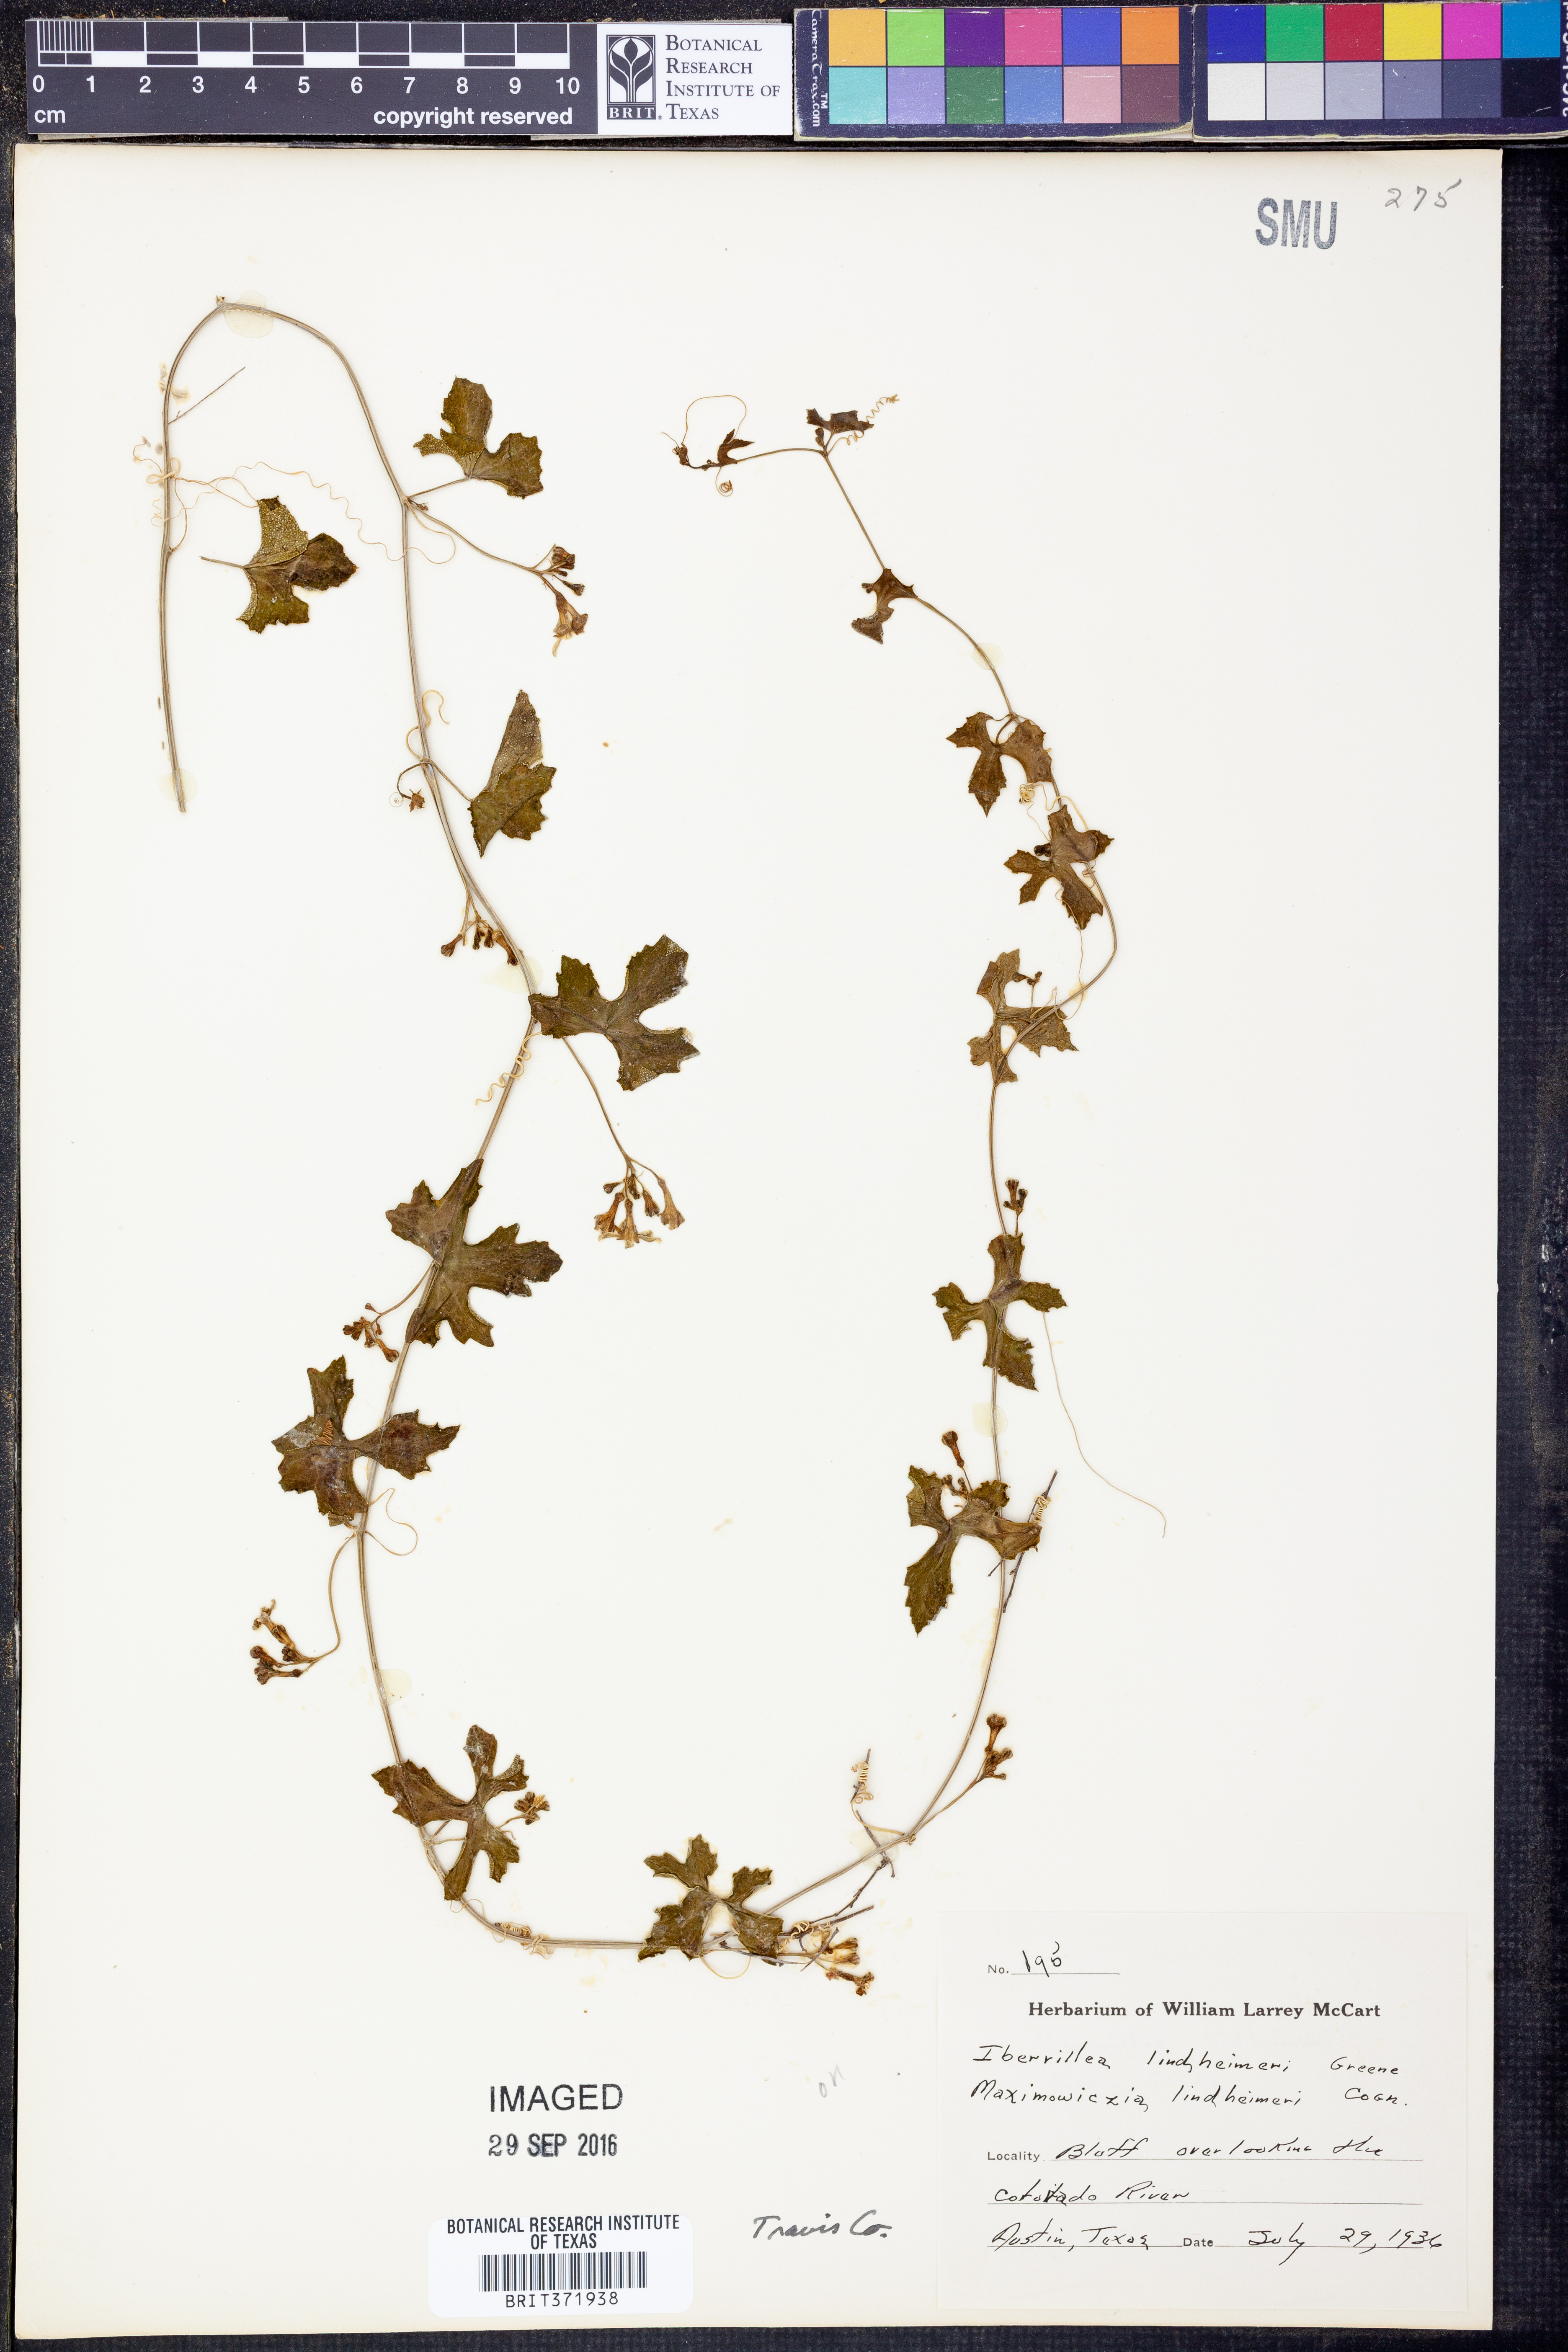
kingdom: Plantae
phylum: Tracheophyta
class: Magnoliopsida
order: Cucurbitales
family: Cucurbitaceae
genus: Ibervillea
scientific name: Ibervillea lindheimeri
